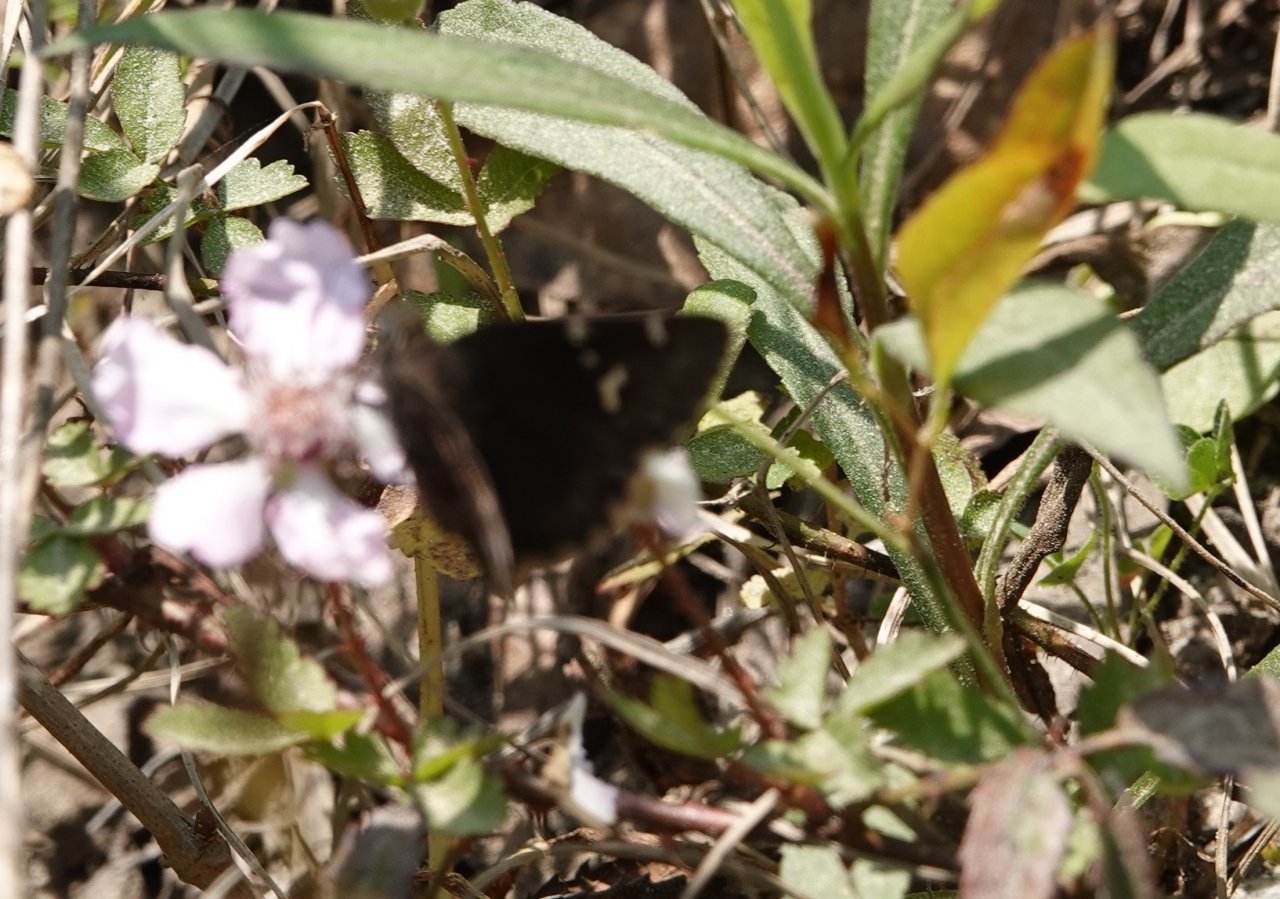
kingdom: Animalia
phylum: Arthropoda
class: Insecta
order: Lepidoptera
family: Hesperiidae
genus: Autochton
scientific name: Autochton
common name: Southern Cloudywing
